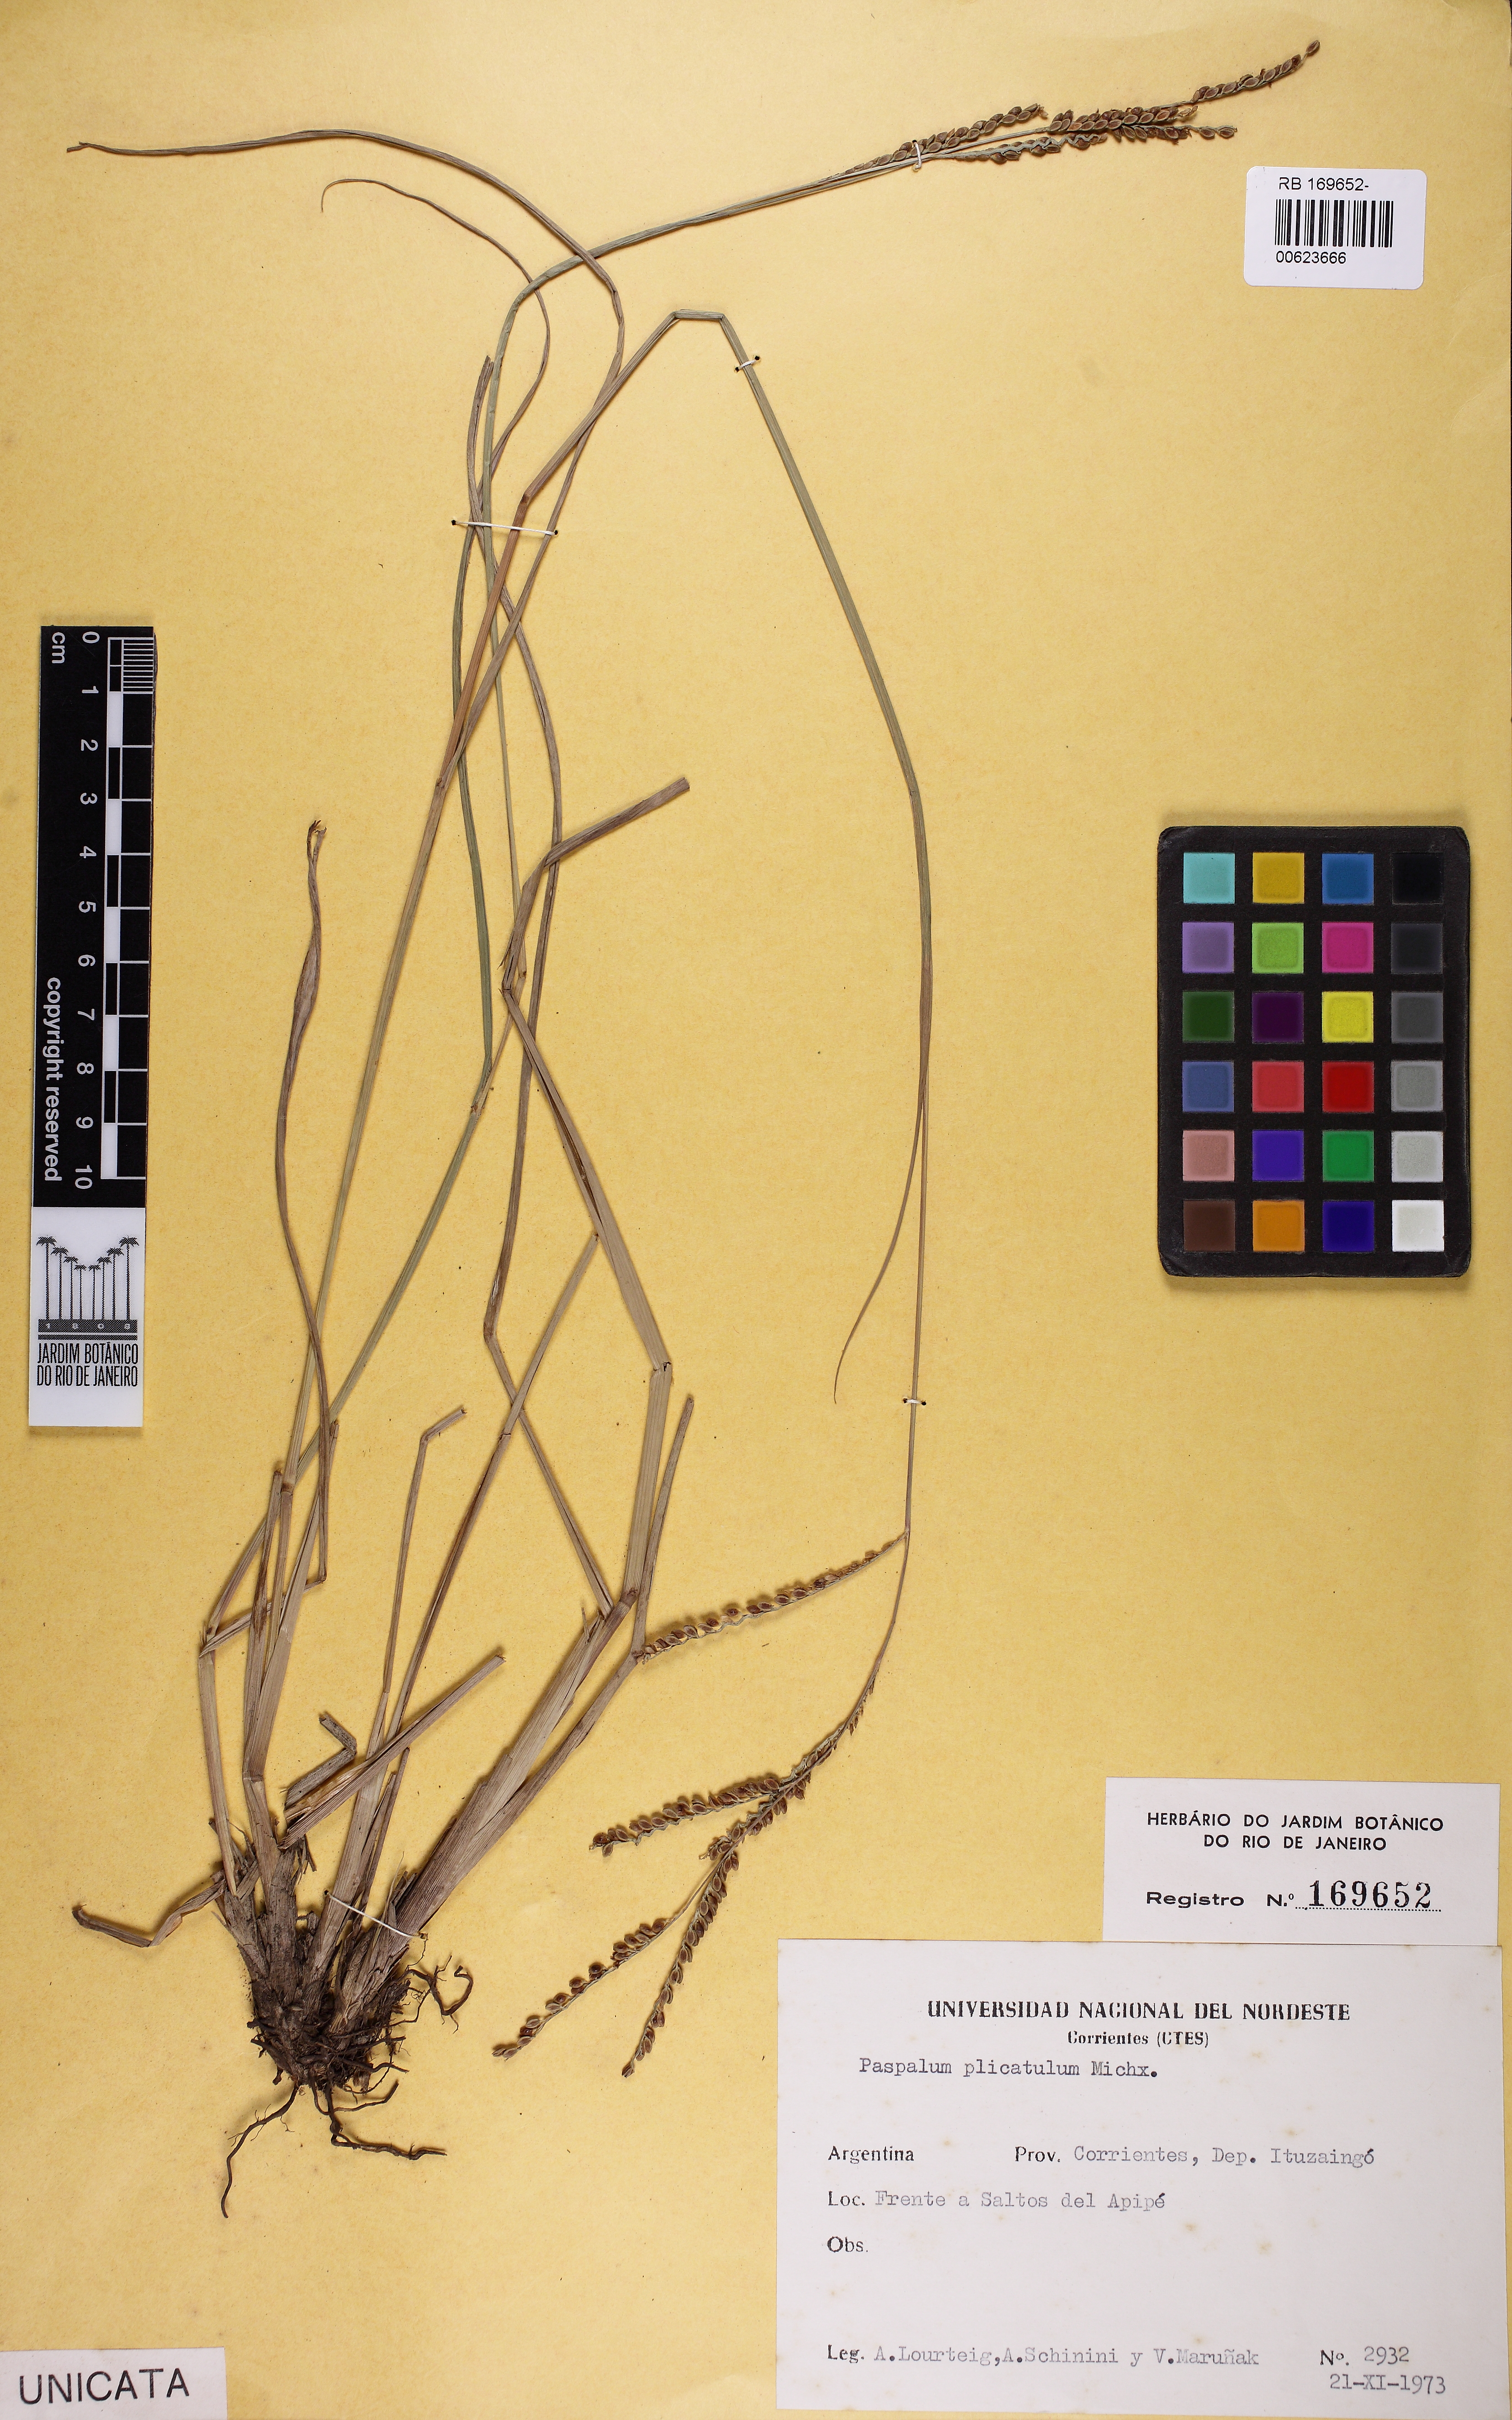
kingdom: Plantae
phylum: Tracheophyta
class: Liliopsida
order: Poales
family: Poaceae
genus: Paspalum
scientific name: Paspalum plicatulum
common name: Top paspalum
